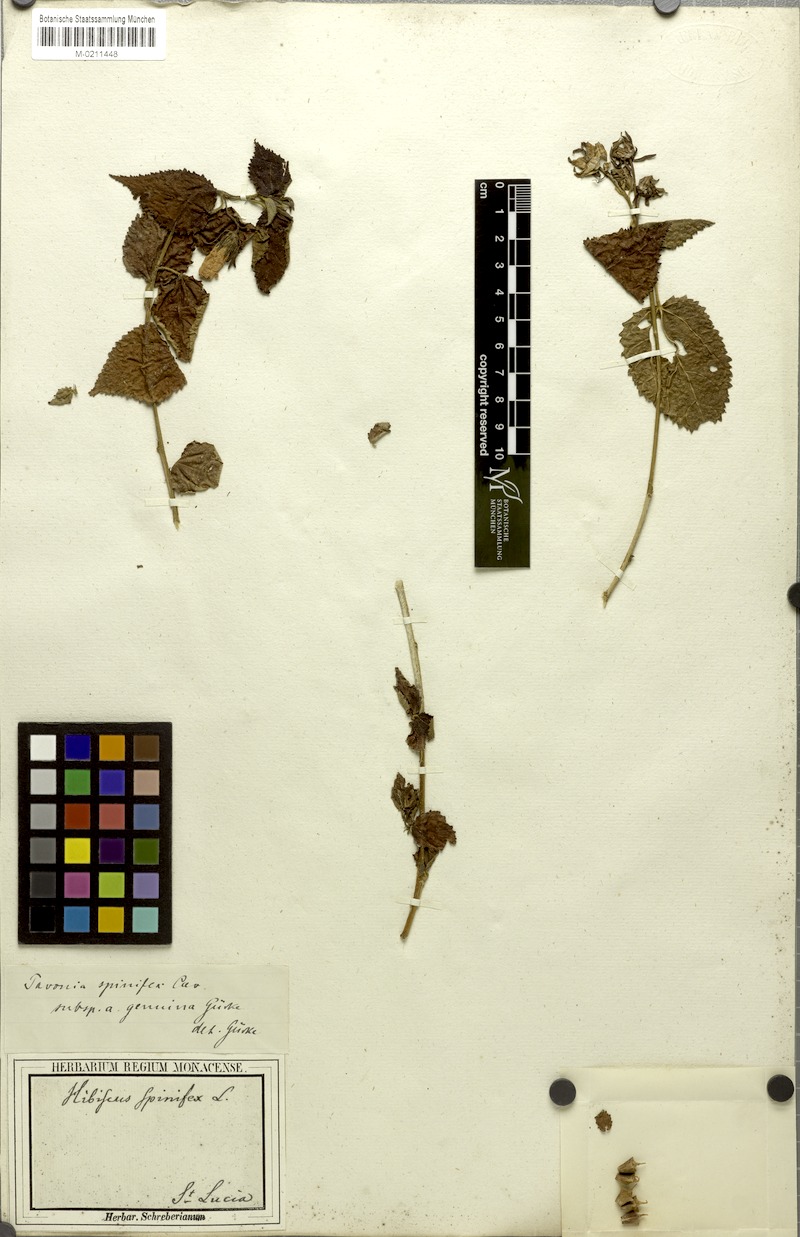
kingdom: Plantae
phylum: Tracheophyta
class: Magnoliopsida
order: Malvales
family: Malvaceae
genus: Pavonia
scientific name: Pavonia spinifex
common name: Ginger bush
